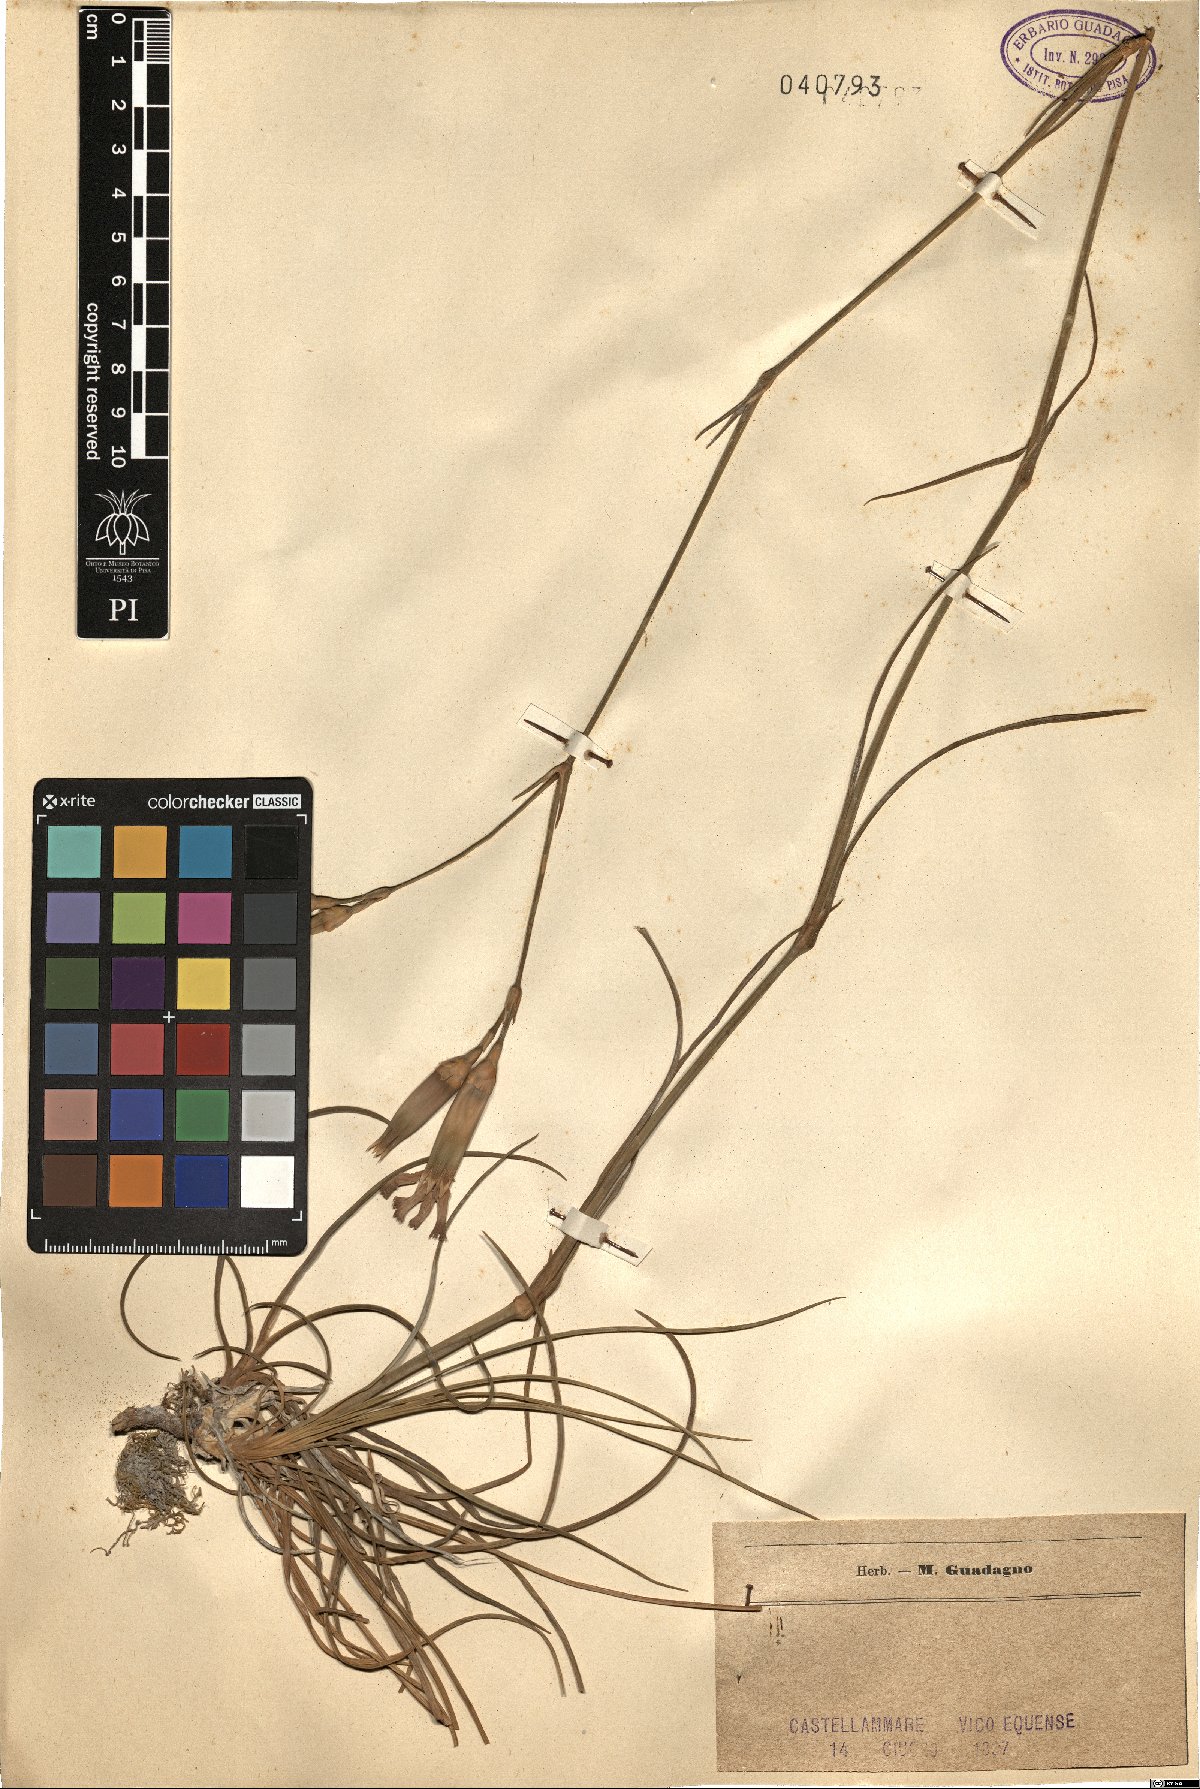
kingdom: Plantae
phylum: Tracheophyta
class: Magnoliopsida
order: Caryophyllales
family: Caryophyllaceae
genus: Dianthus
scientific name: Dianthus
